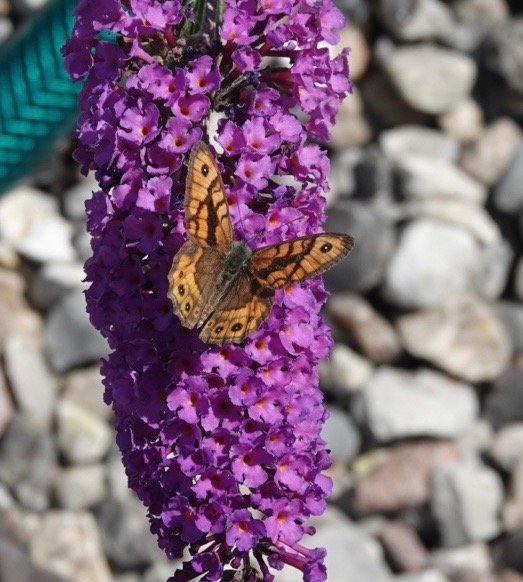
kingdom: Animalia
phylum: Arthropoda
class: Insecta
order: Lepidoptera
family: Nymphalidae
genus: Pararge
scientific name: Pararge Lasiommata megera
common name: Vejrandøje
